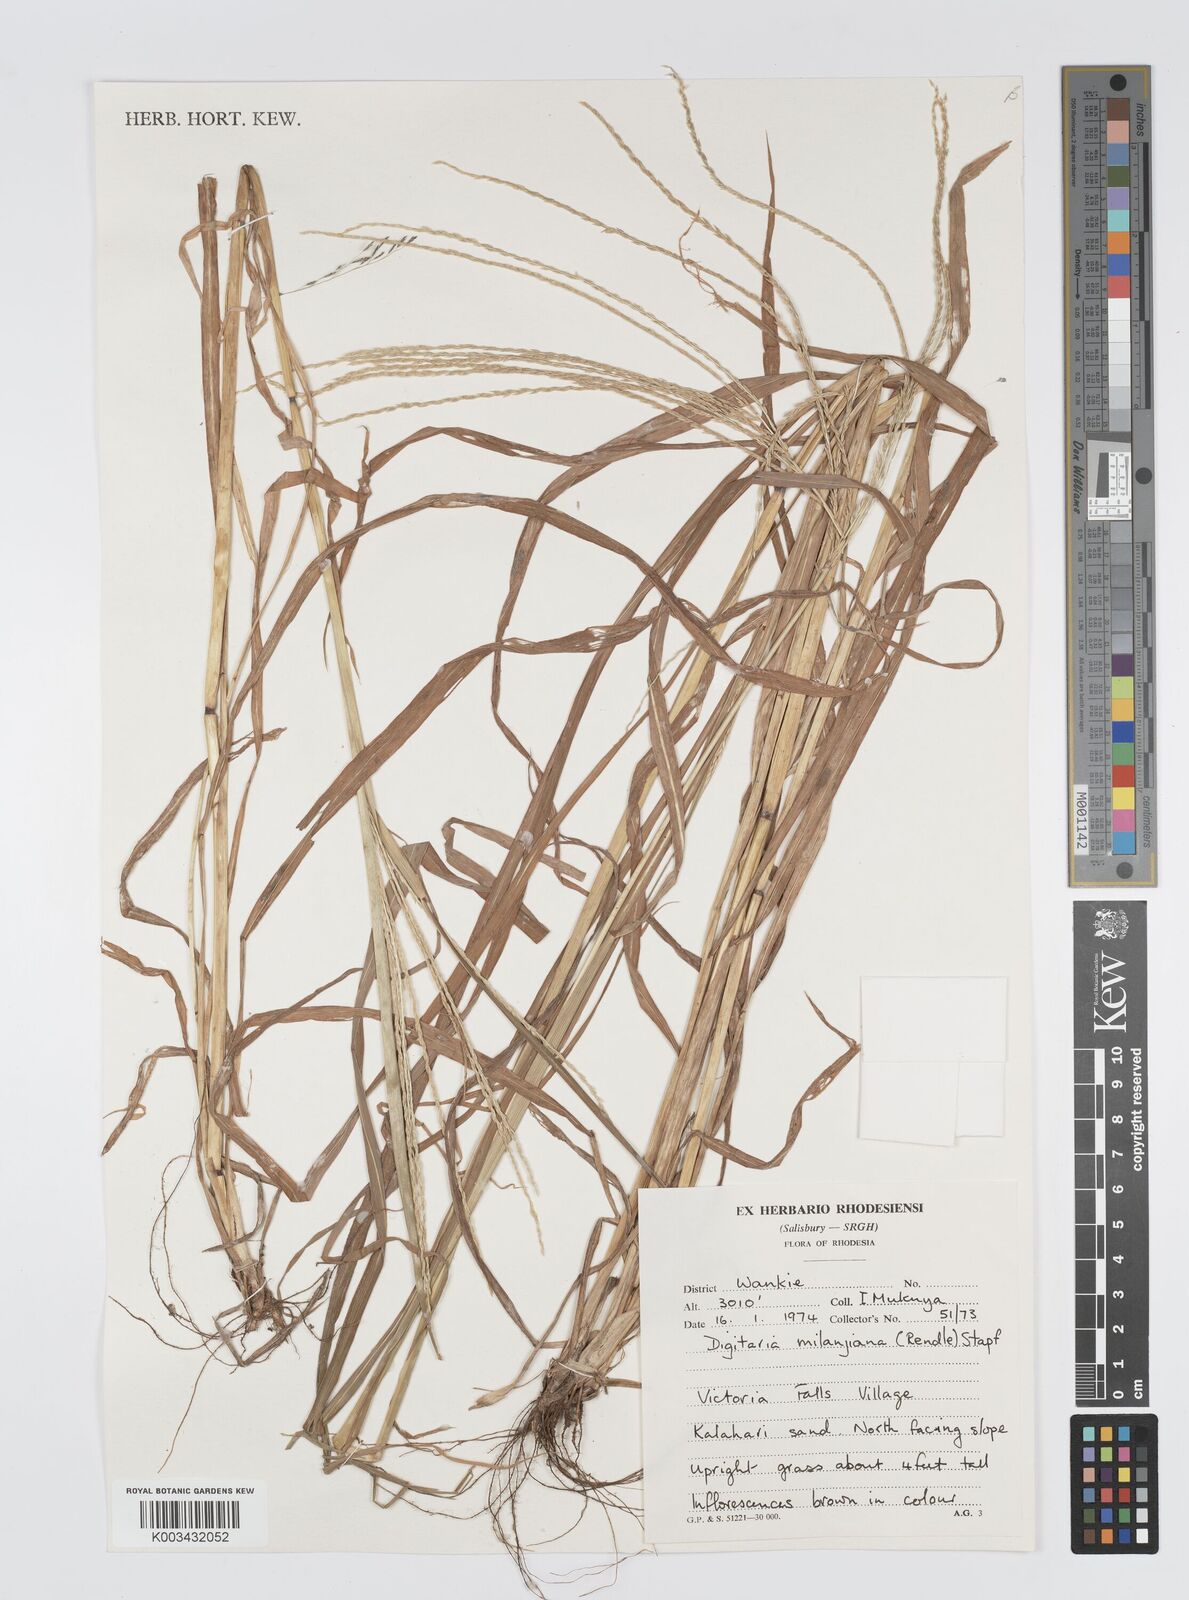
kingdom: Plantae
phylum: Tracheophyta
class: Liliopsida
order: Poales
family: Poaceae
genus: Digitaria
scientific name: Digitaria milanjiana
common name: Madagascar crabgrass
